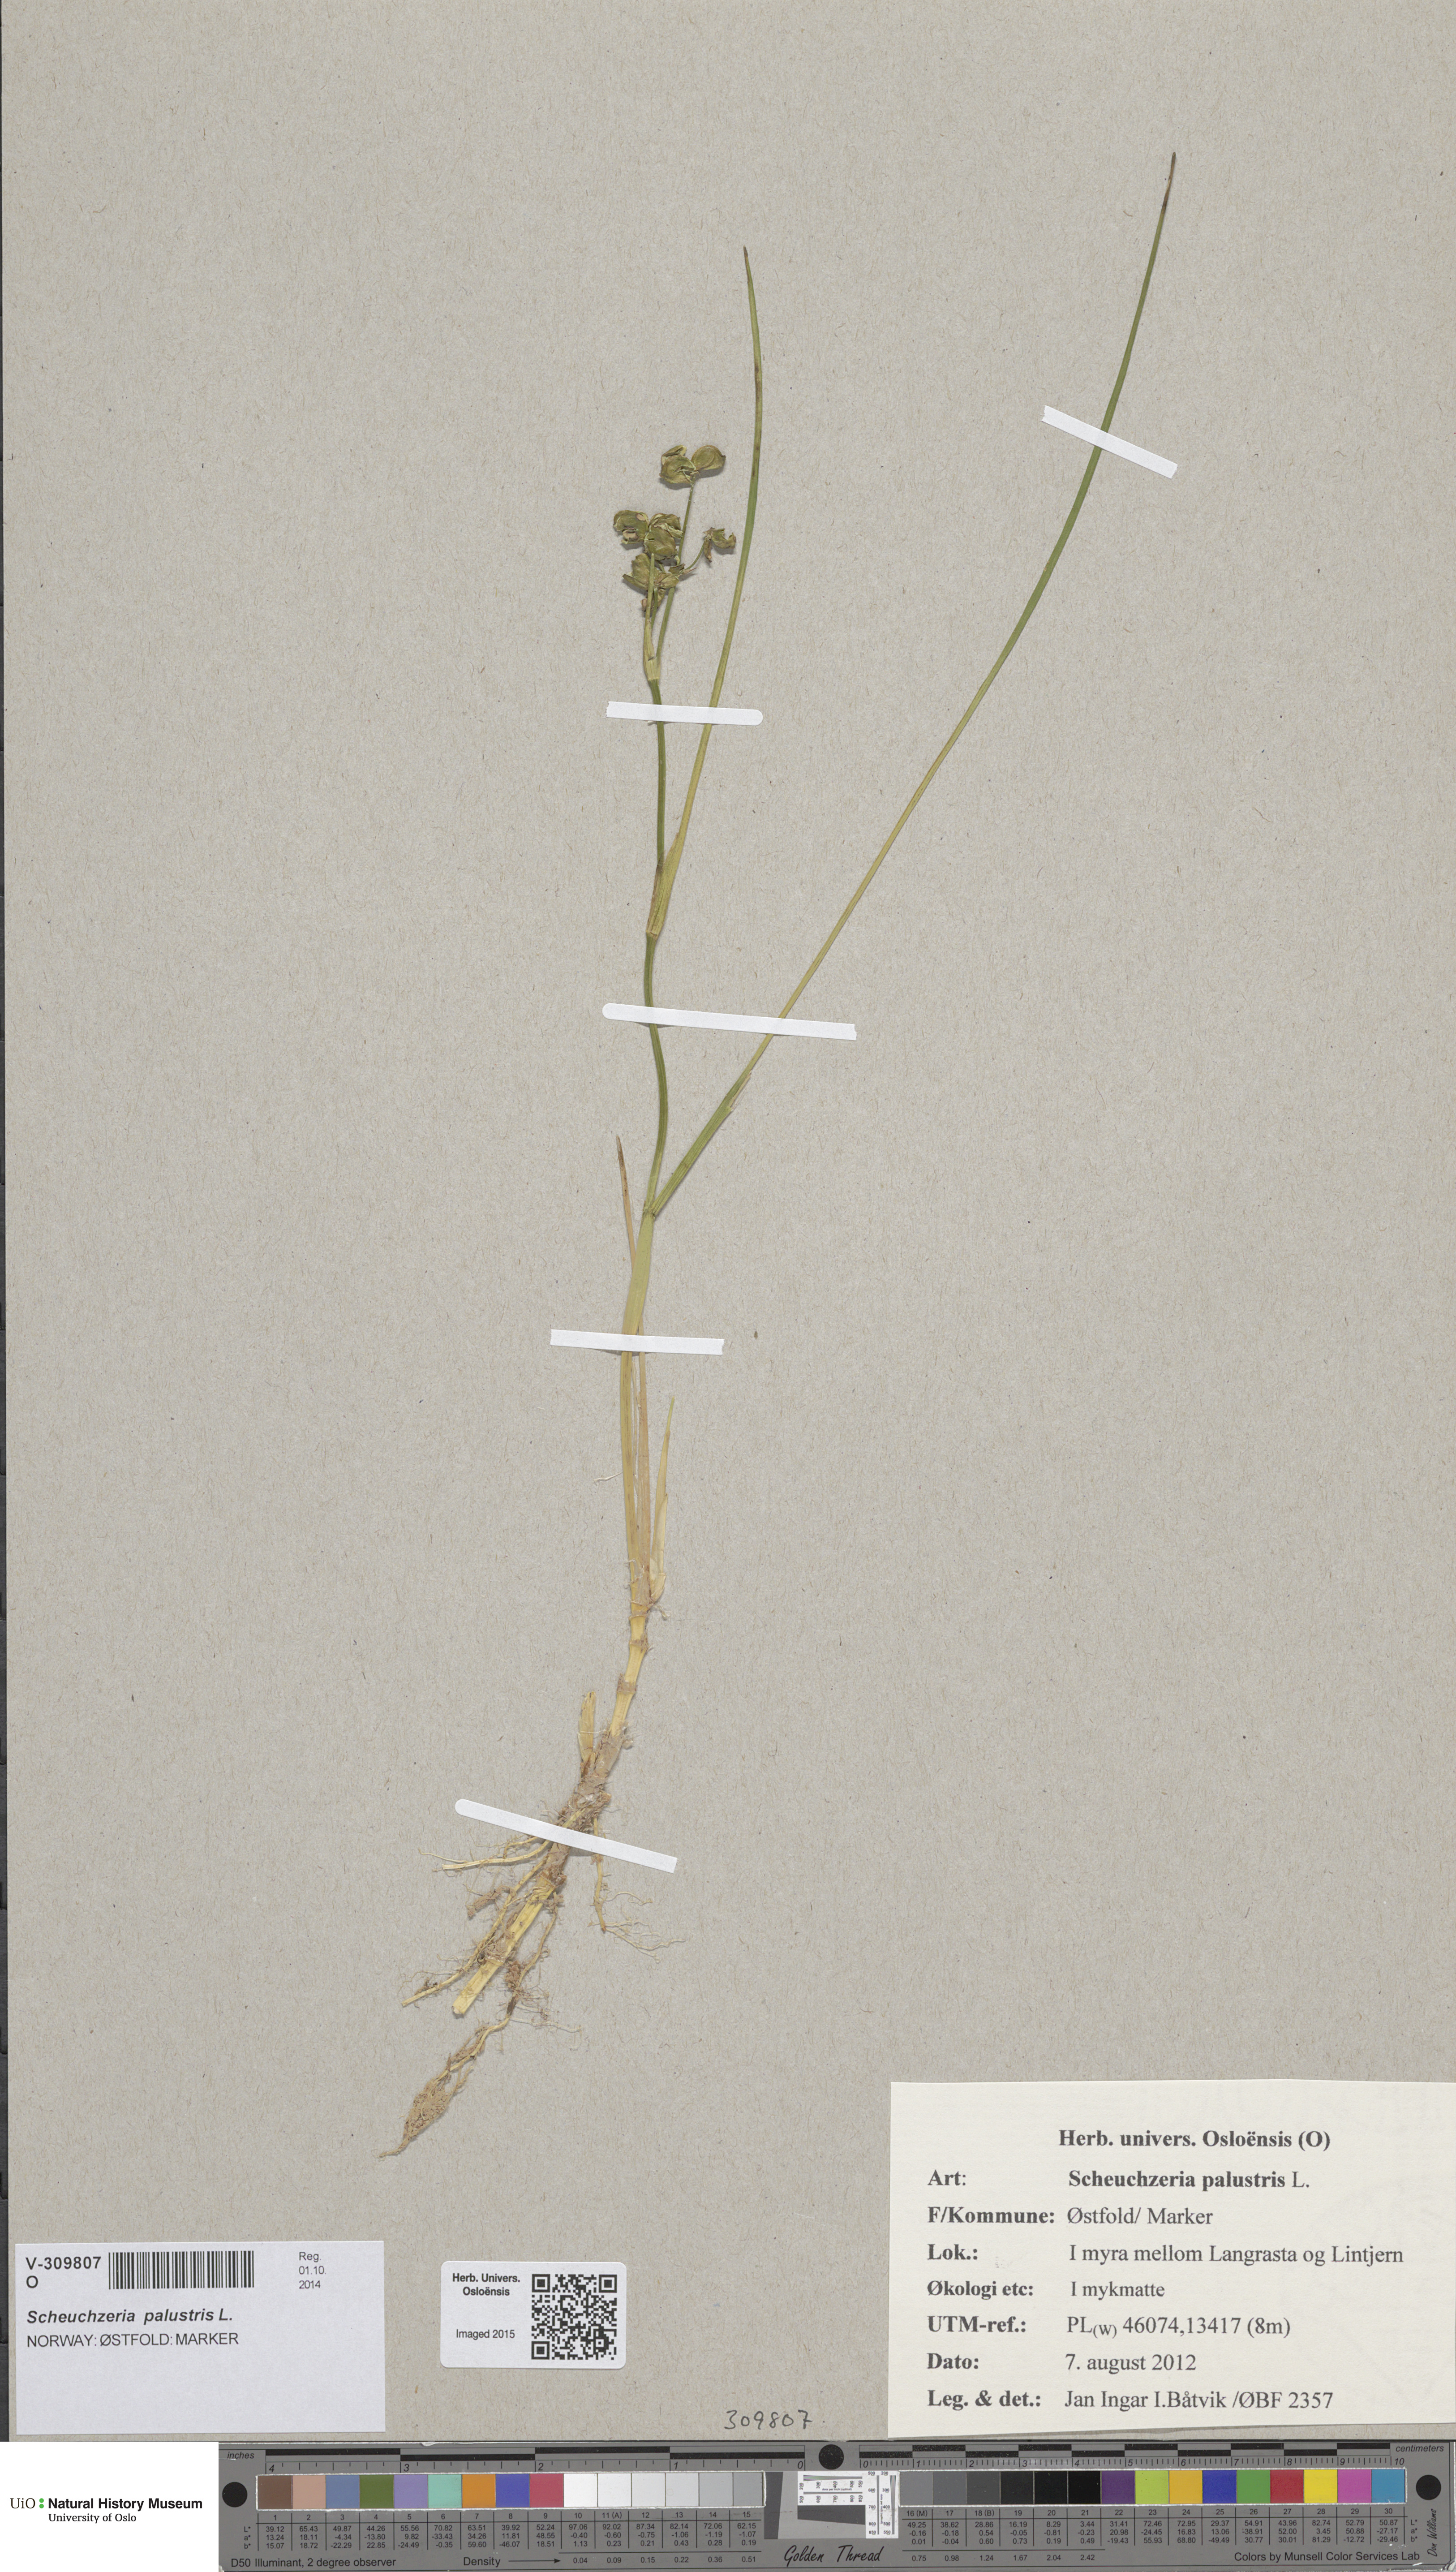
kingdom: Plantae
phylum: Tracheophyta
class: Liliopsida
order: Alismatales
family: Scheuchzeriaceae
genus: Scheuchzeria
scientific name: Scheuchzeria palustris
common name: Rannoch-rush
